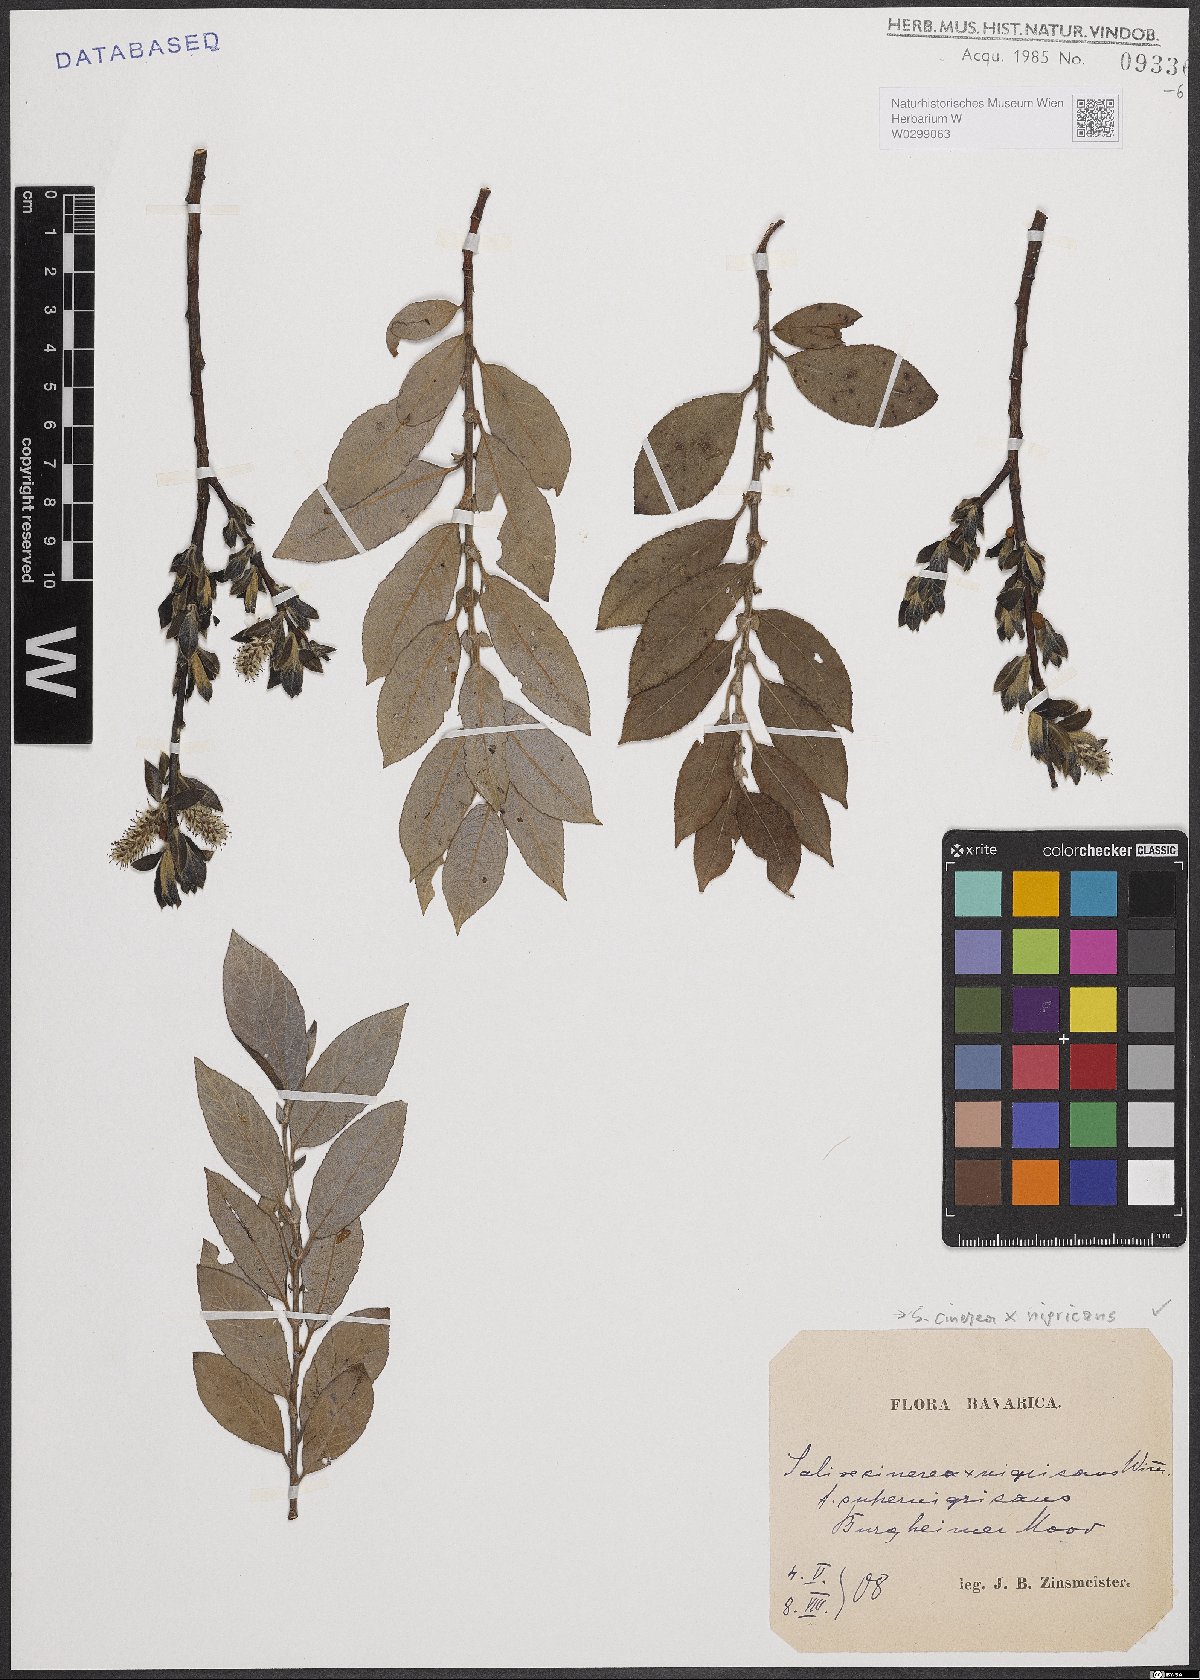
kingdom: Plantae
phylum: Tracheophyta
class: Magnoliopsida
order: Malpighiales
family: Salicaceae
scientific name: Salicaceae
